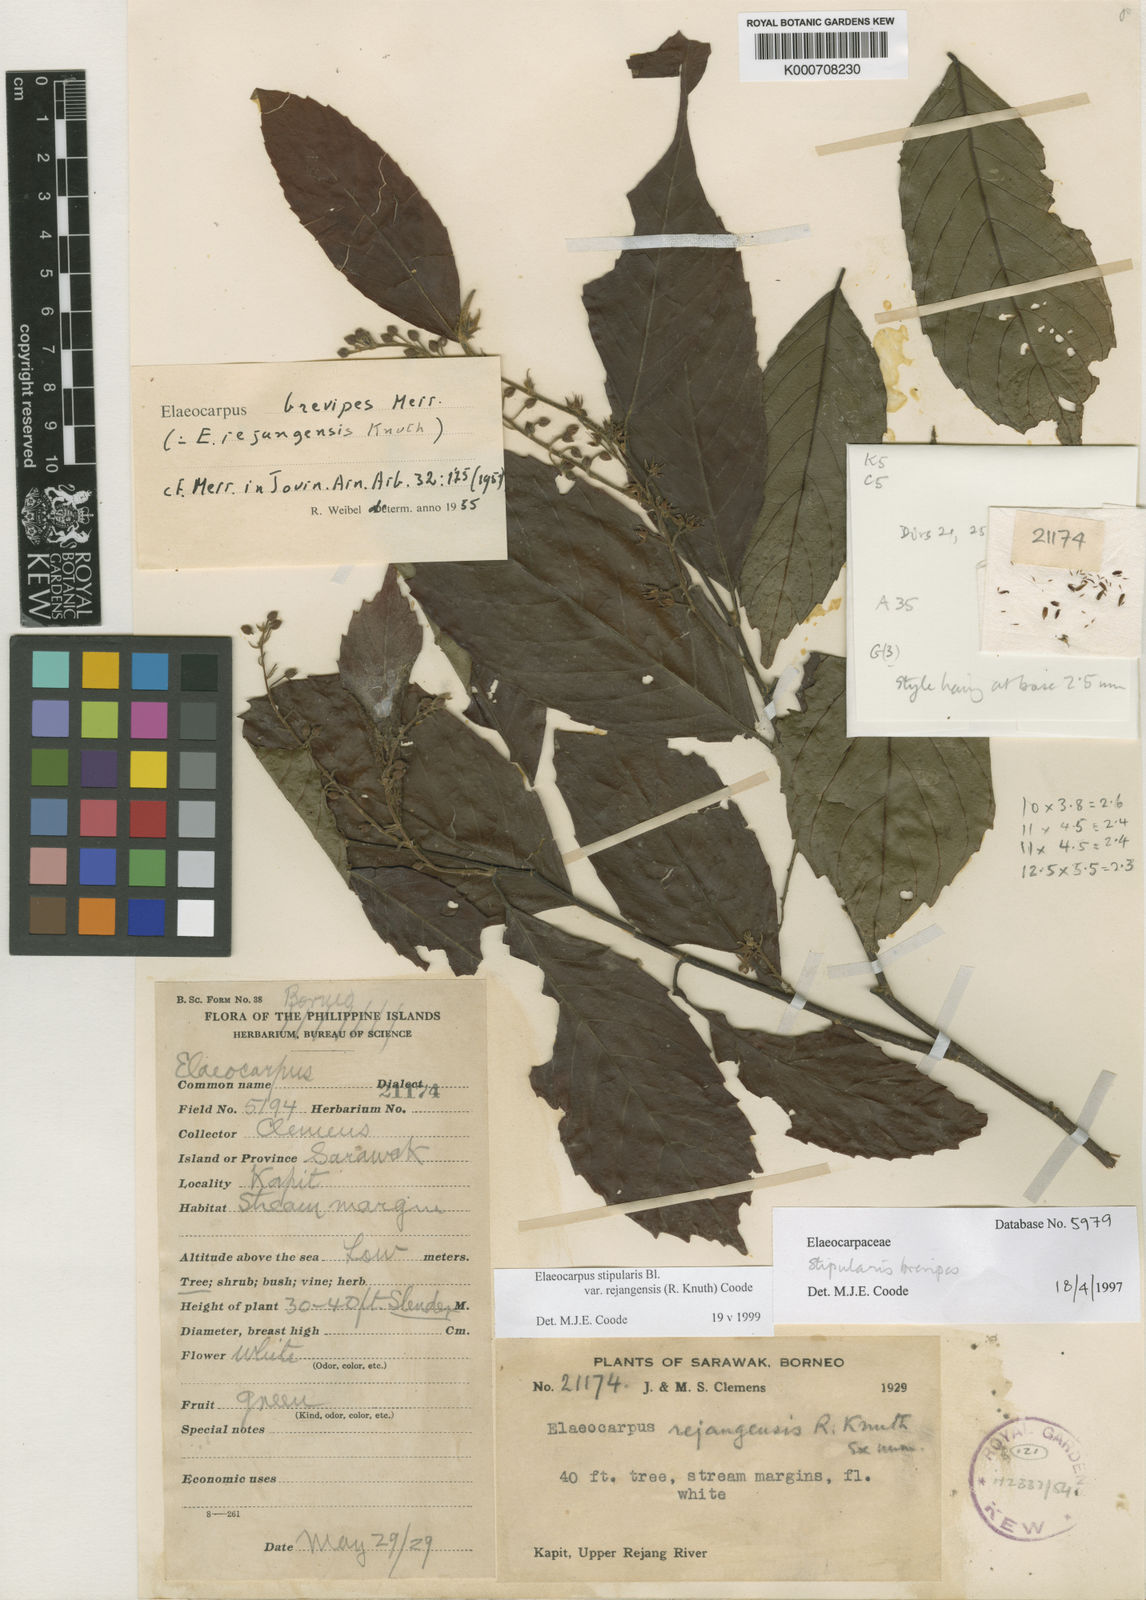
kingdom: Plantae
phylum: Tracheophyta
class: Magnoliopsida
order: Oxalidales
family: Elaeocarpaceae
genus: Elaeocarpus
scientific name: Elaeocarpus stipularis
